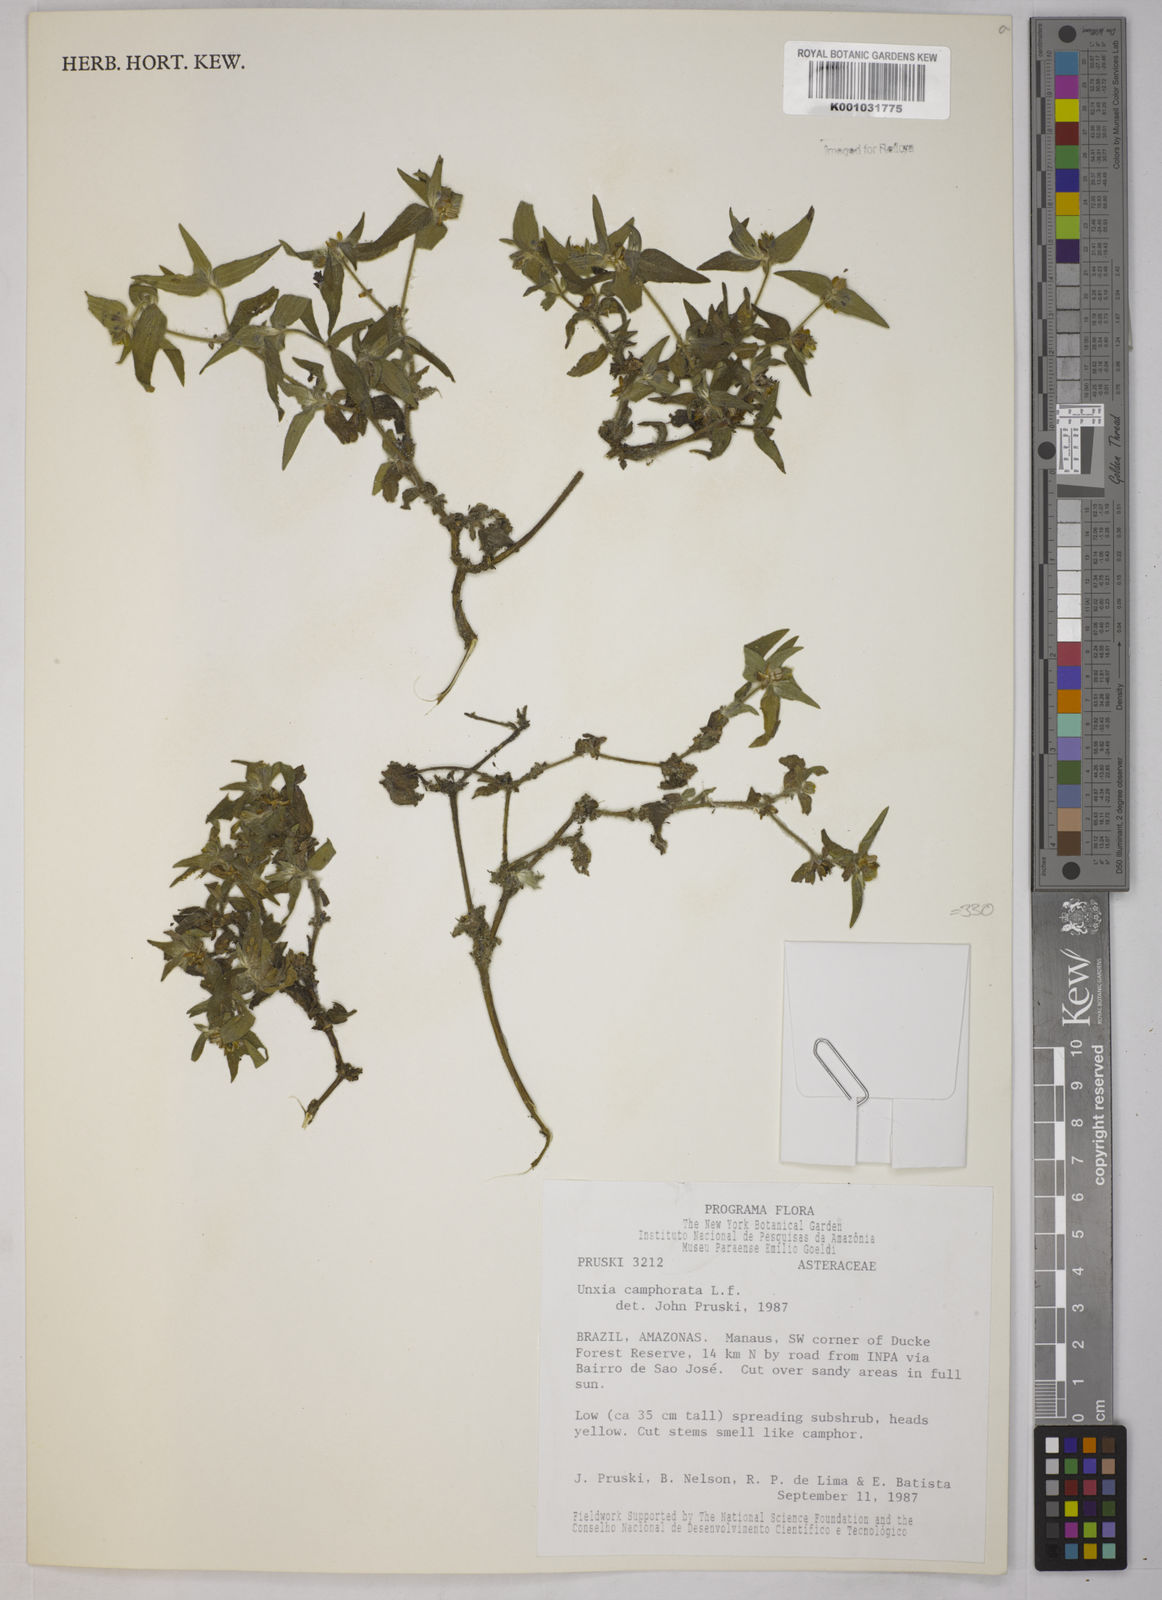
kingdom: Plantae
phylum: Tracheophyta
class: Magnoliopsida
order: Asterales
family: Asteraceae
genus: Unxia
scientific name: Unxia camphorata
